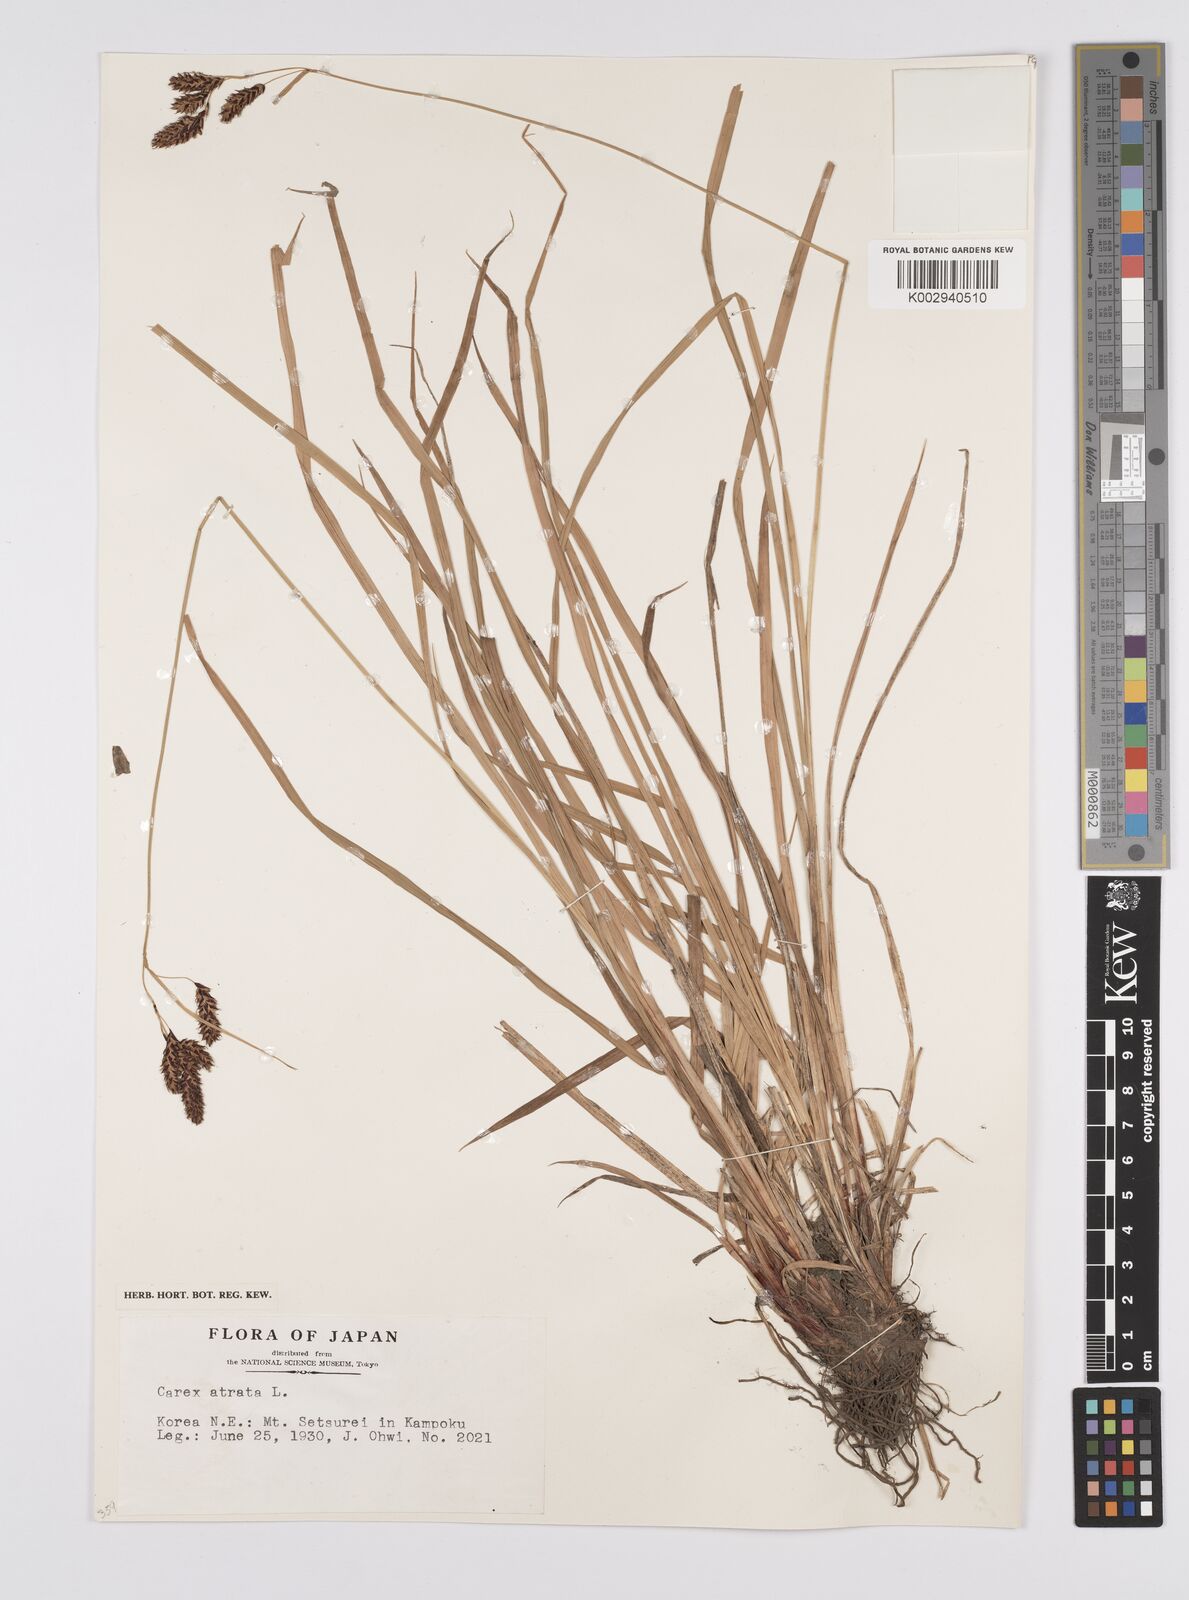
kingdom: Plantae
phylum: Tracheophyta
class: Liliopsida
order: Poales
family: Cyperaceae
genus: Carex
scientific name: Carex atrata
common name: Black alpine sedge
